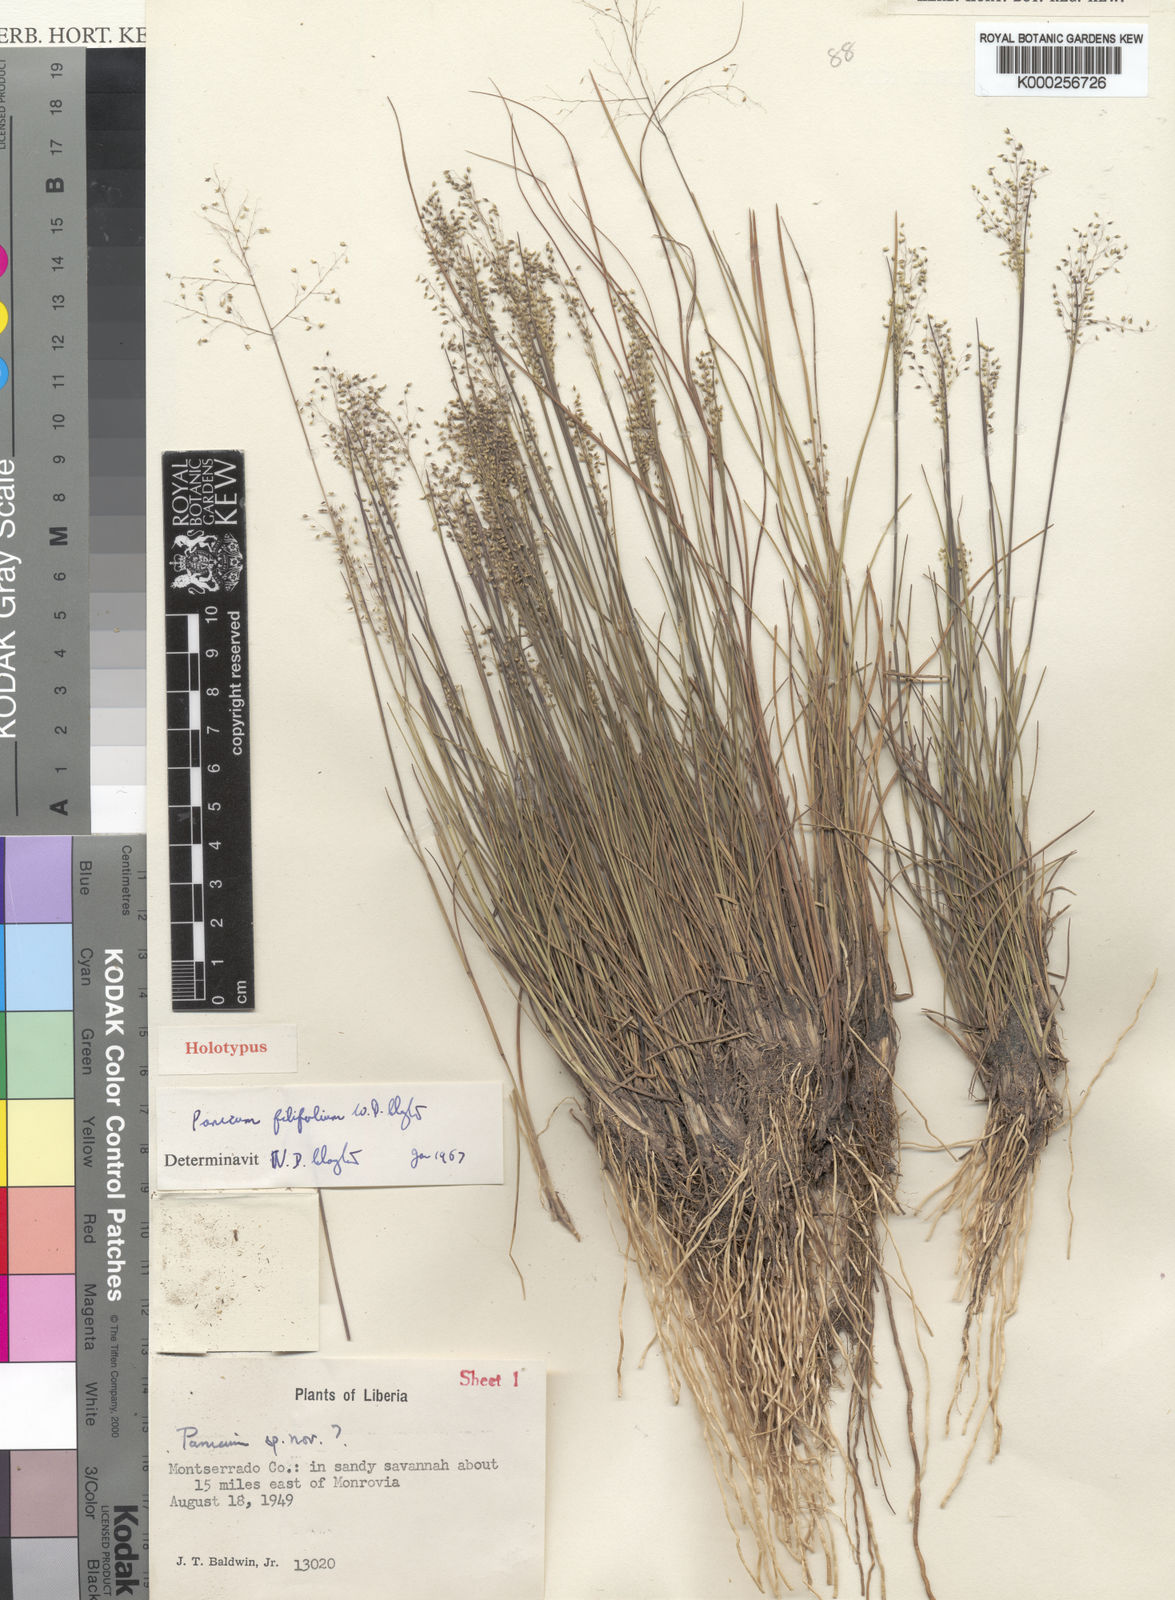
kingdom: Plantae
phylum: Tracheophyta
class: Liliopsida
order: Poales
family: Poaceae
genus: Trichanthecium
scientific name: Trichanthecium filifolium
